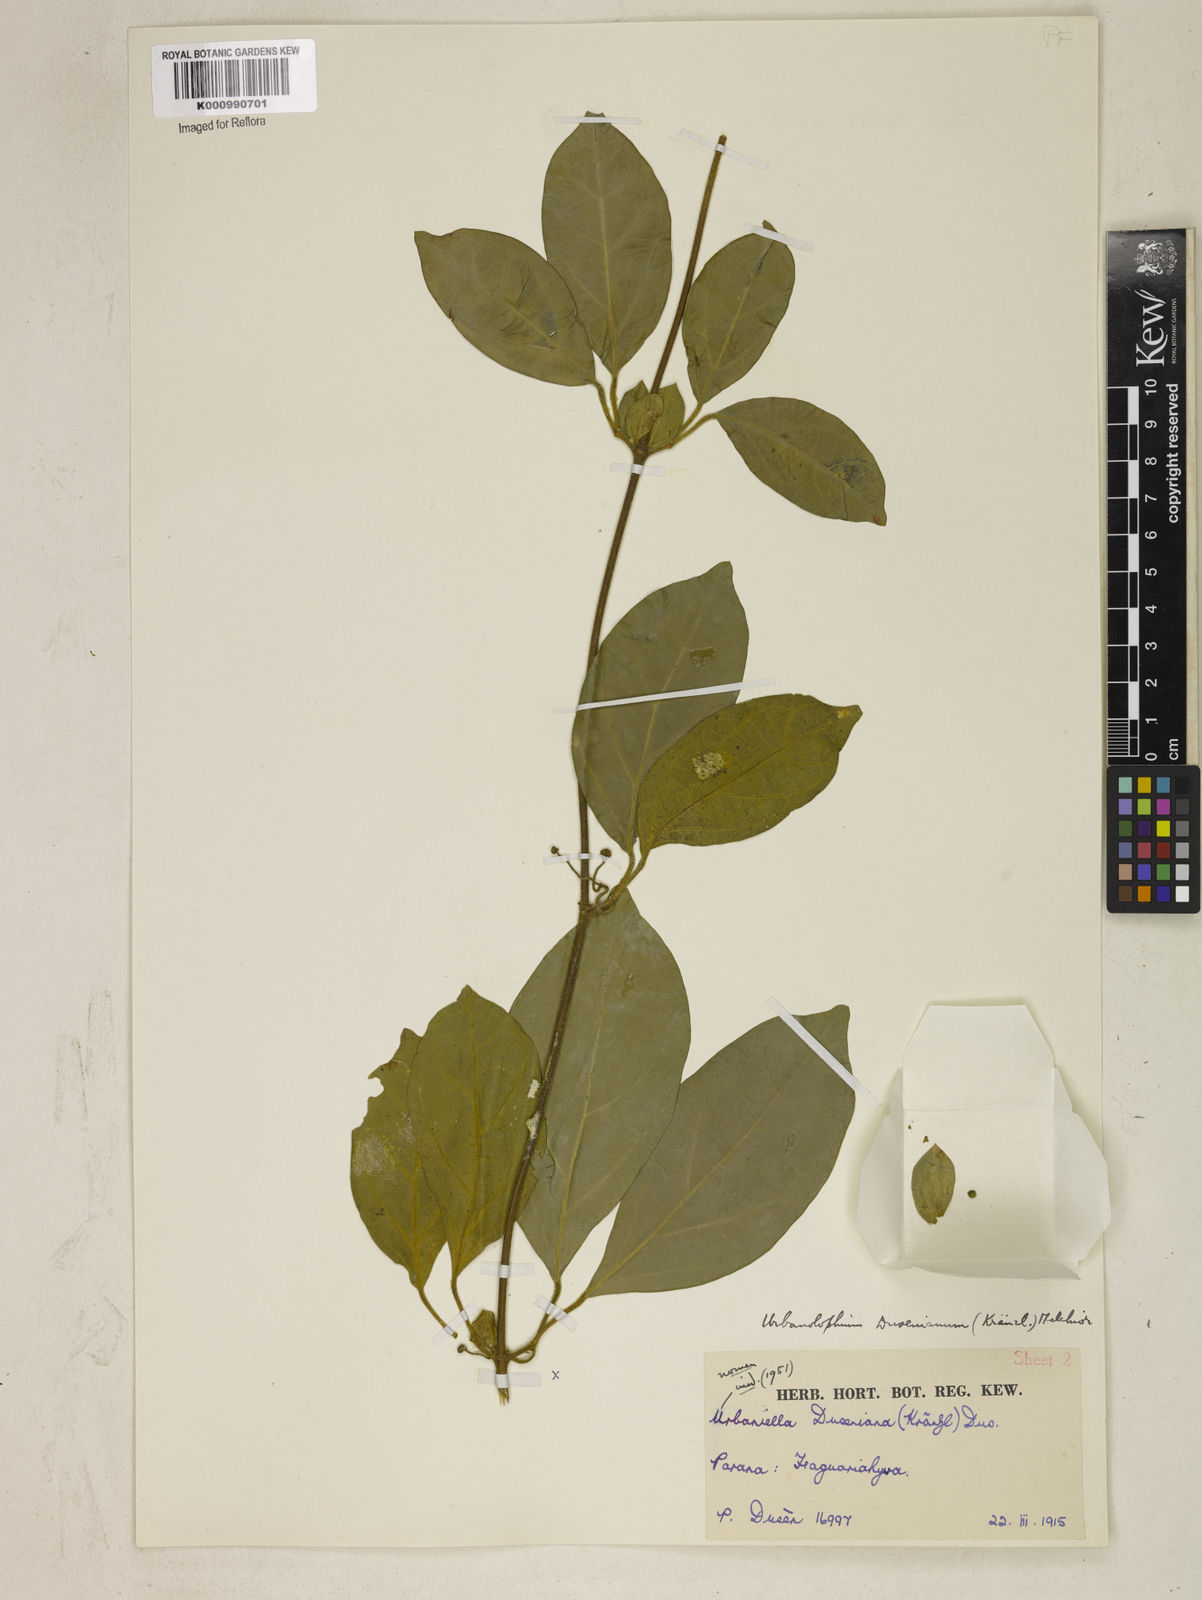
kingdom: Plantae
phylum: Tracheophyta
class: Magnoliopsida
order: Lamiales
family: Bignoniaceae
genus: Amphilophium
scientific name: Amphilophium dusenianum
